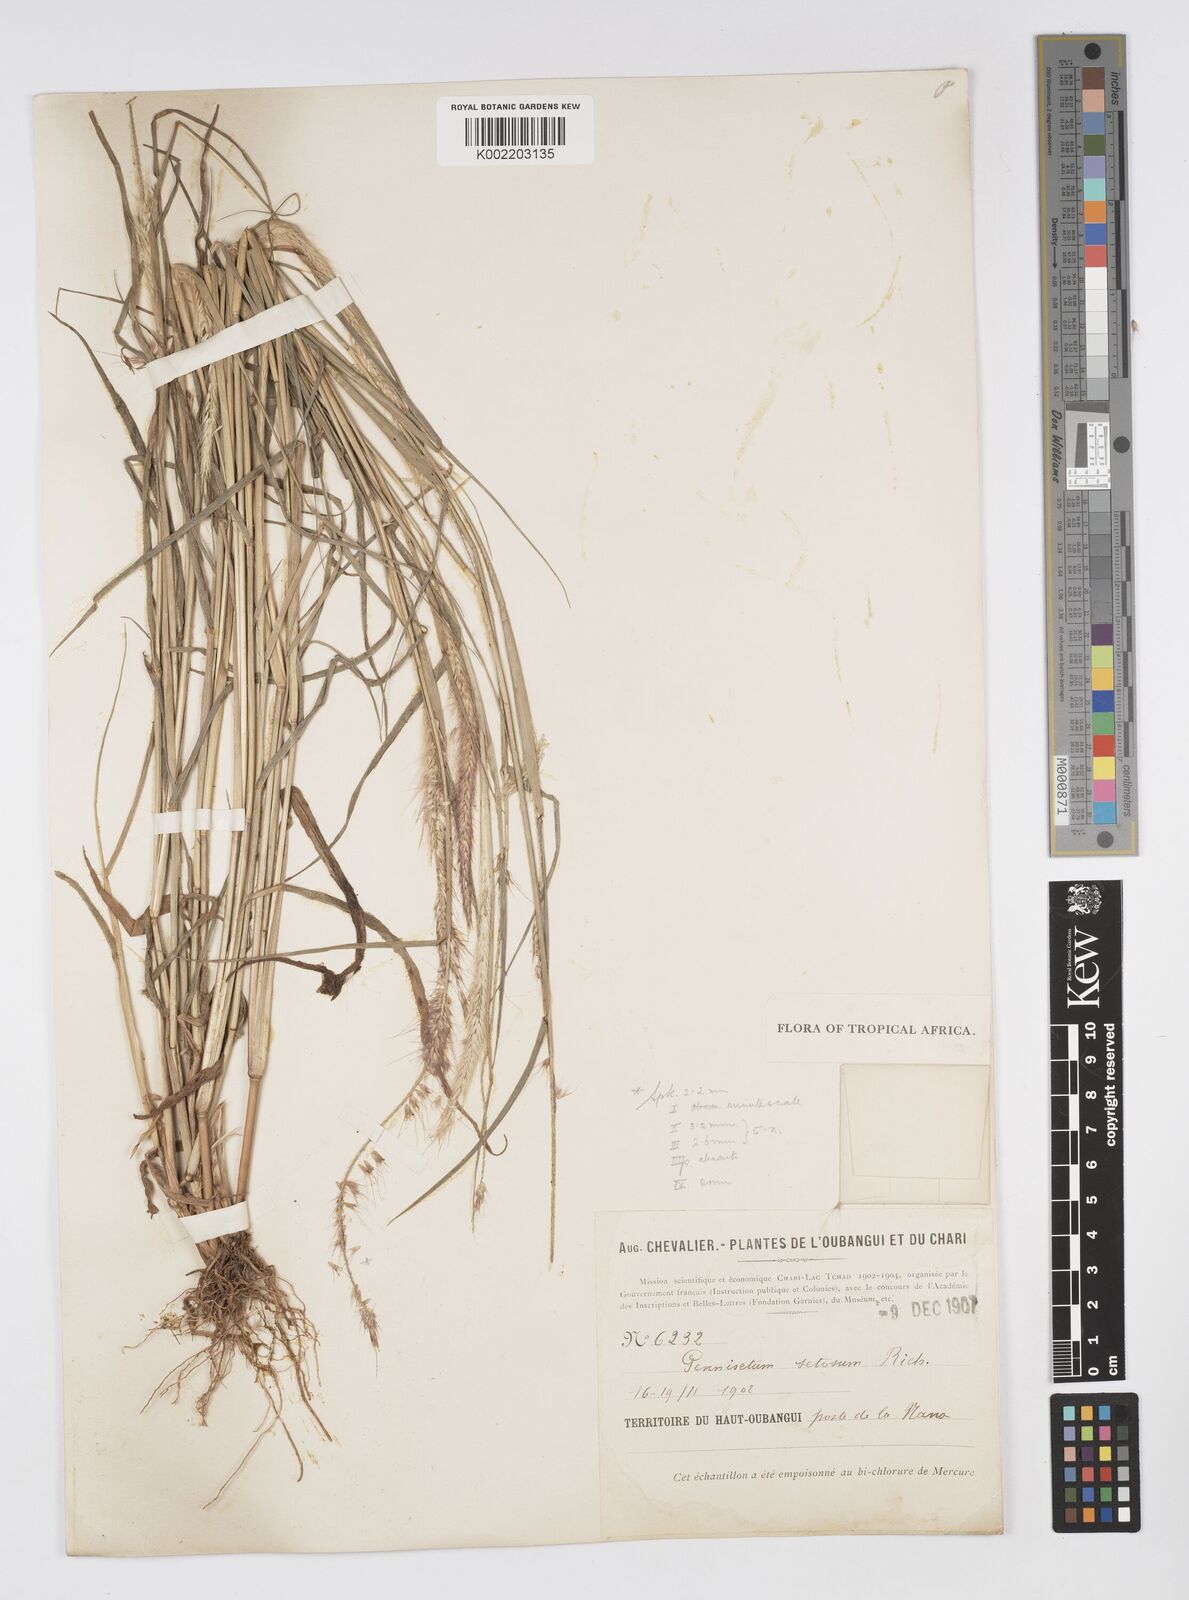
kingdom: Plantae
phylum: Tracheophyta
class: Liliopsida
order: Poales
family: Poaceae
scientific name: Poaceae
